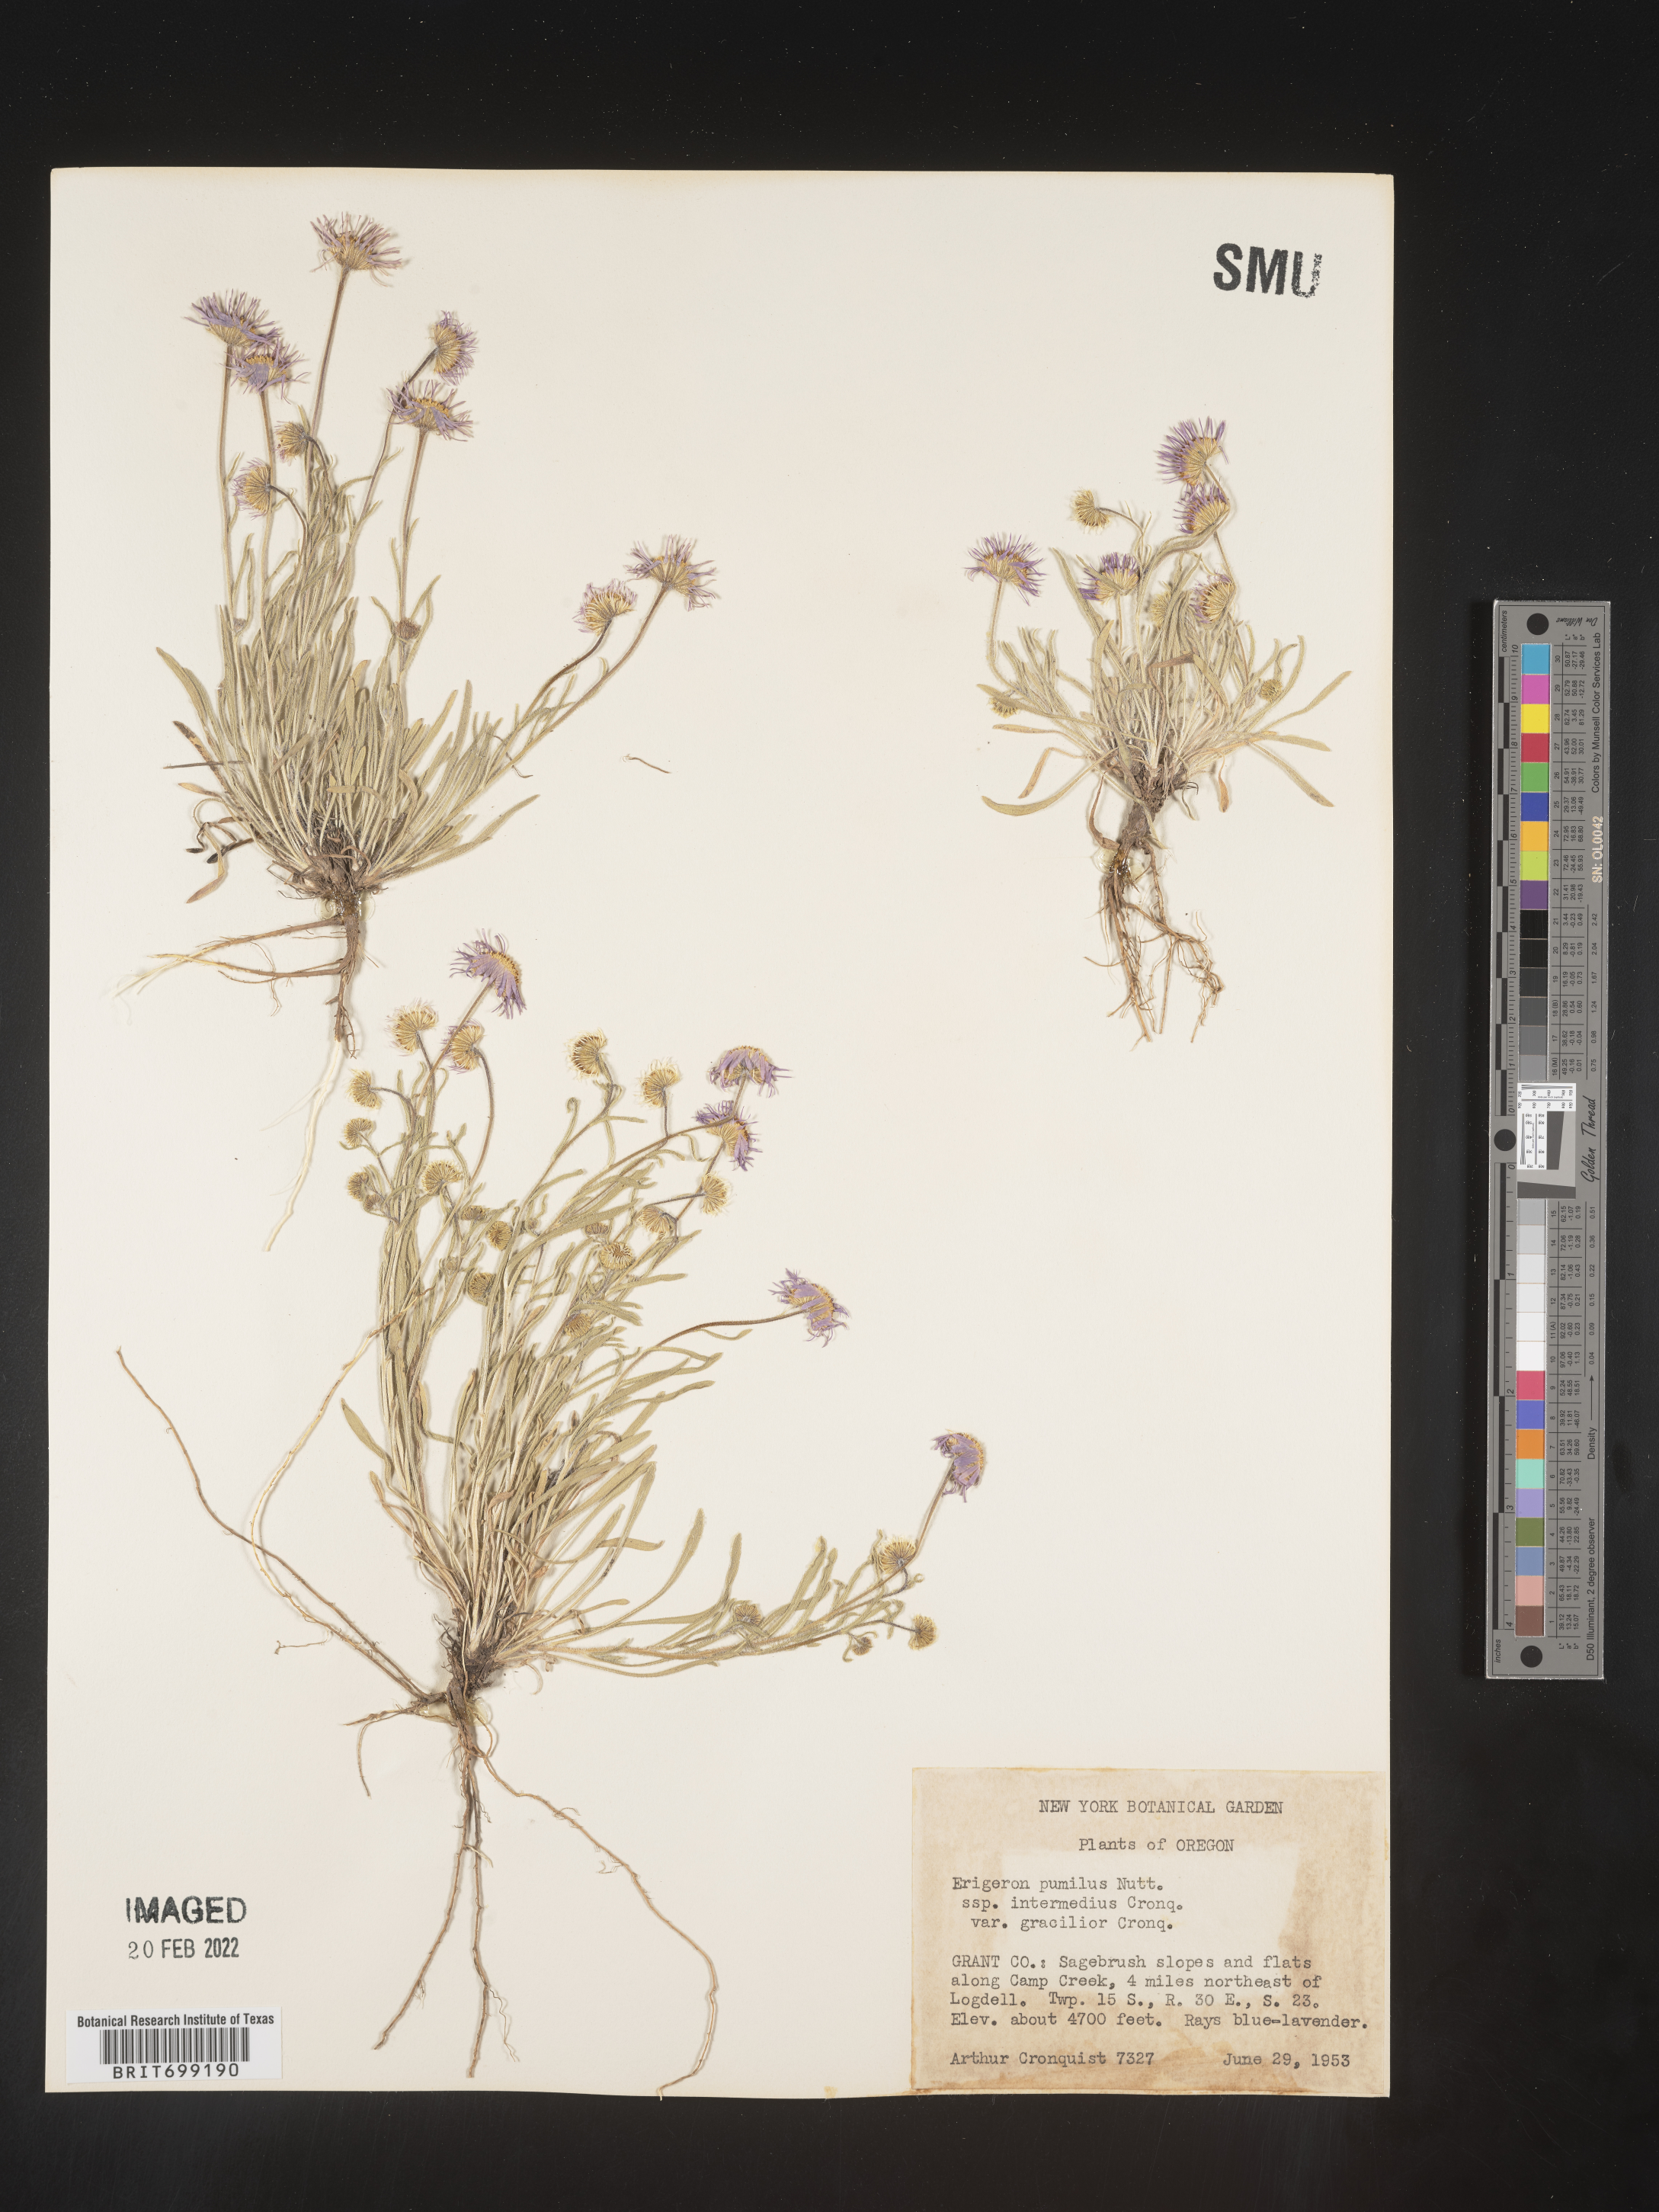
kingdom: Plantae
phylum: Tracheophyta
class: Magnoliopsida
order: Asterales
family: Asteraceae
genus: Erigeron
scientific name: Erigeron pumilus
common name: Shaggy fleabane
